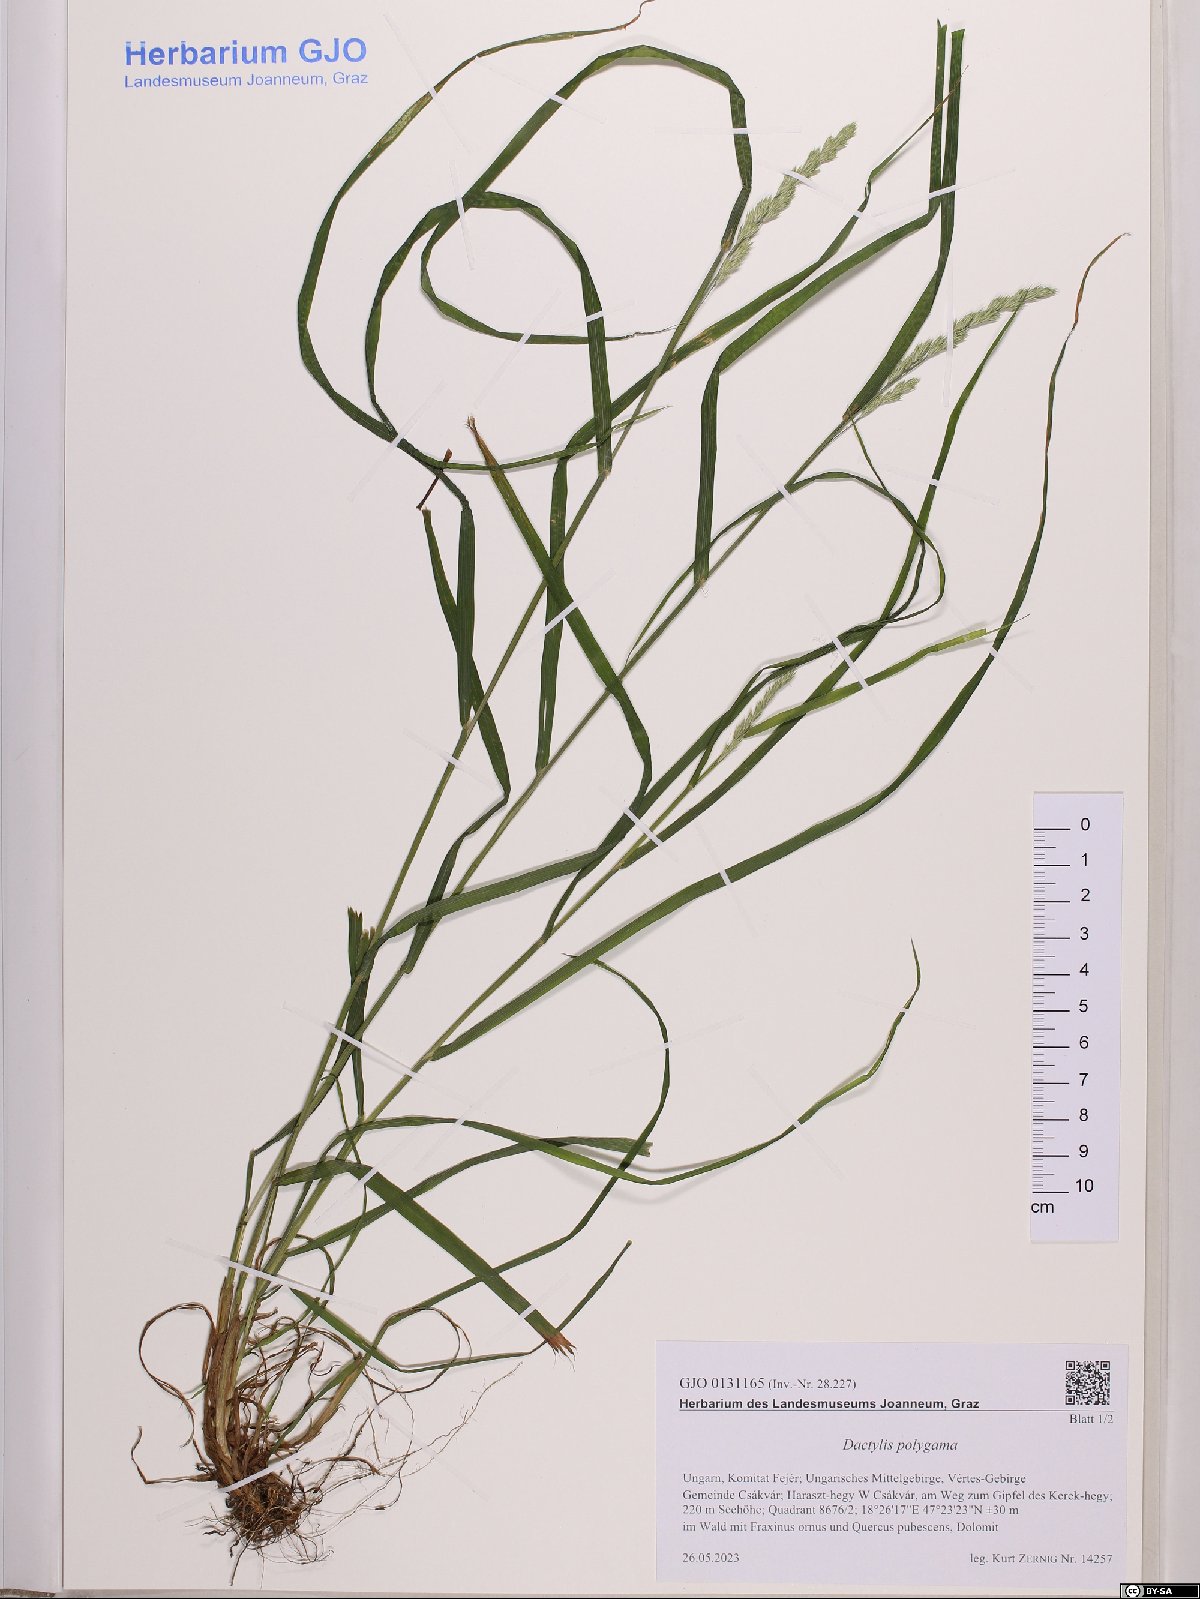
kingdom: Plantae
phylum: Tracheophyta
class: Liliopsida
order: Poales
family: Poaceae
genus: Dactylis
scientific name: Dactylis glomerata
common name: Orchardgrass
